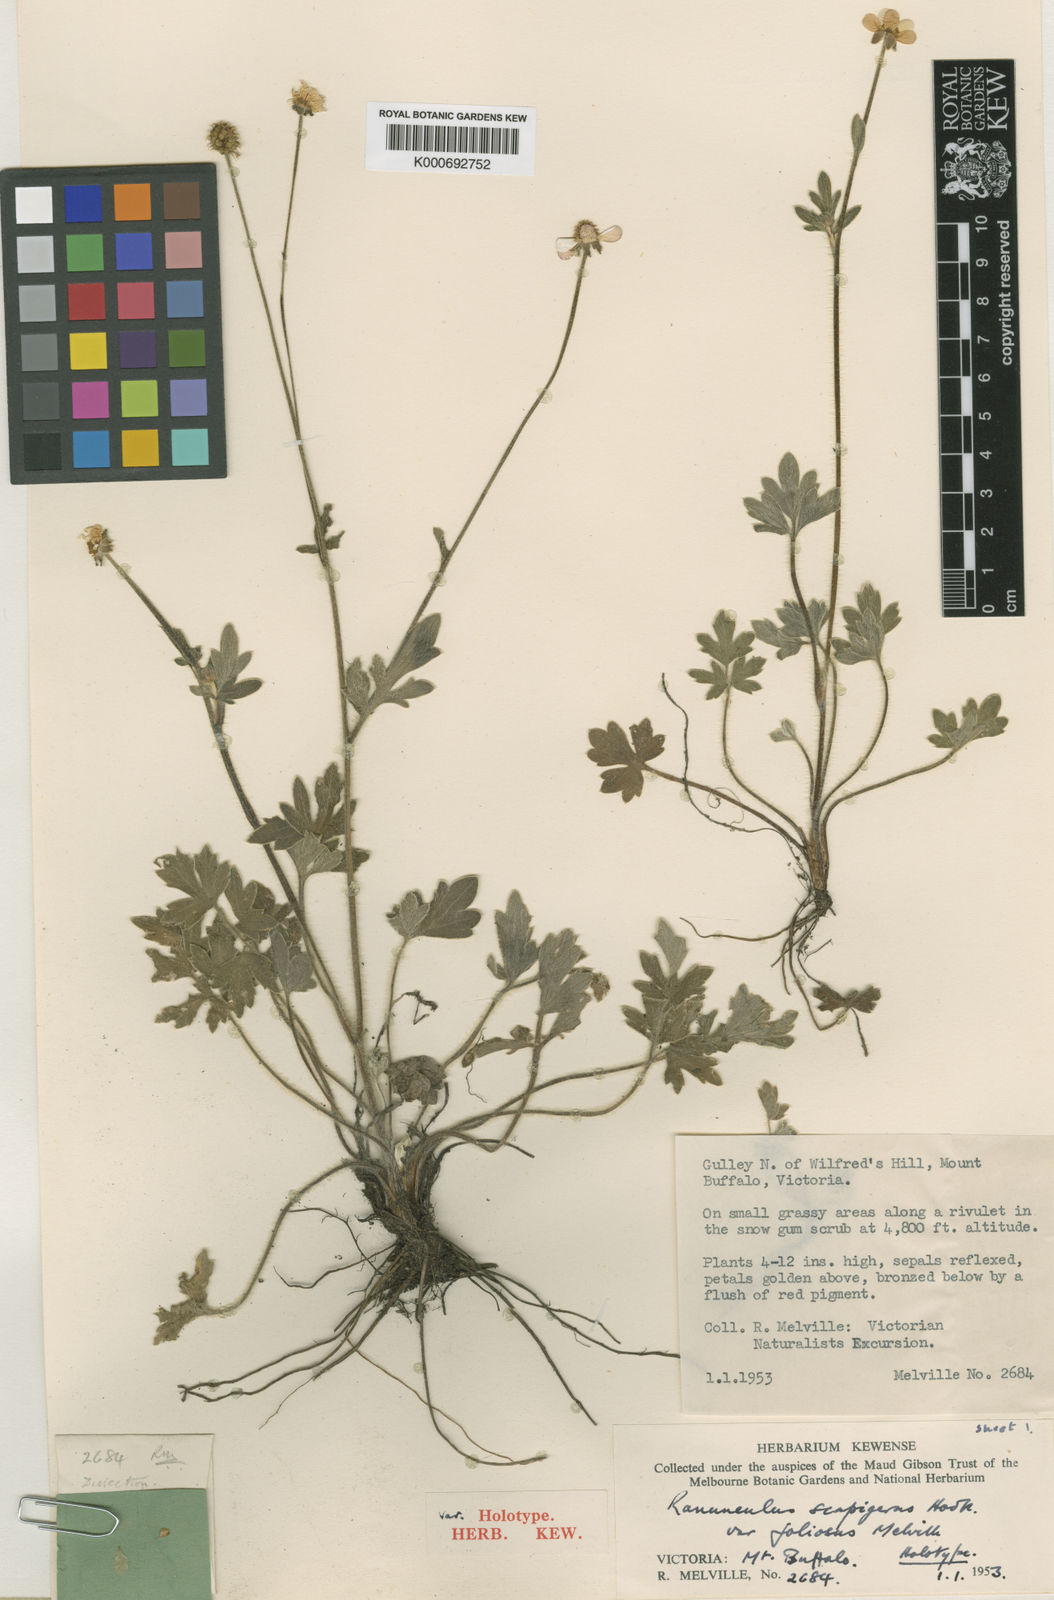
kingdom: Plantae
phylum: Tracheophyta
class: Magnoliopsida
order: Ranunculales
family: Ranunculaceae
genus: Ranunculus
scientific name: Ranunculus
